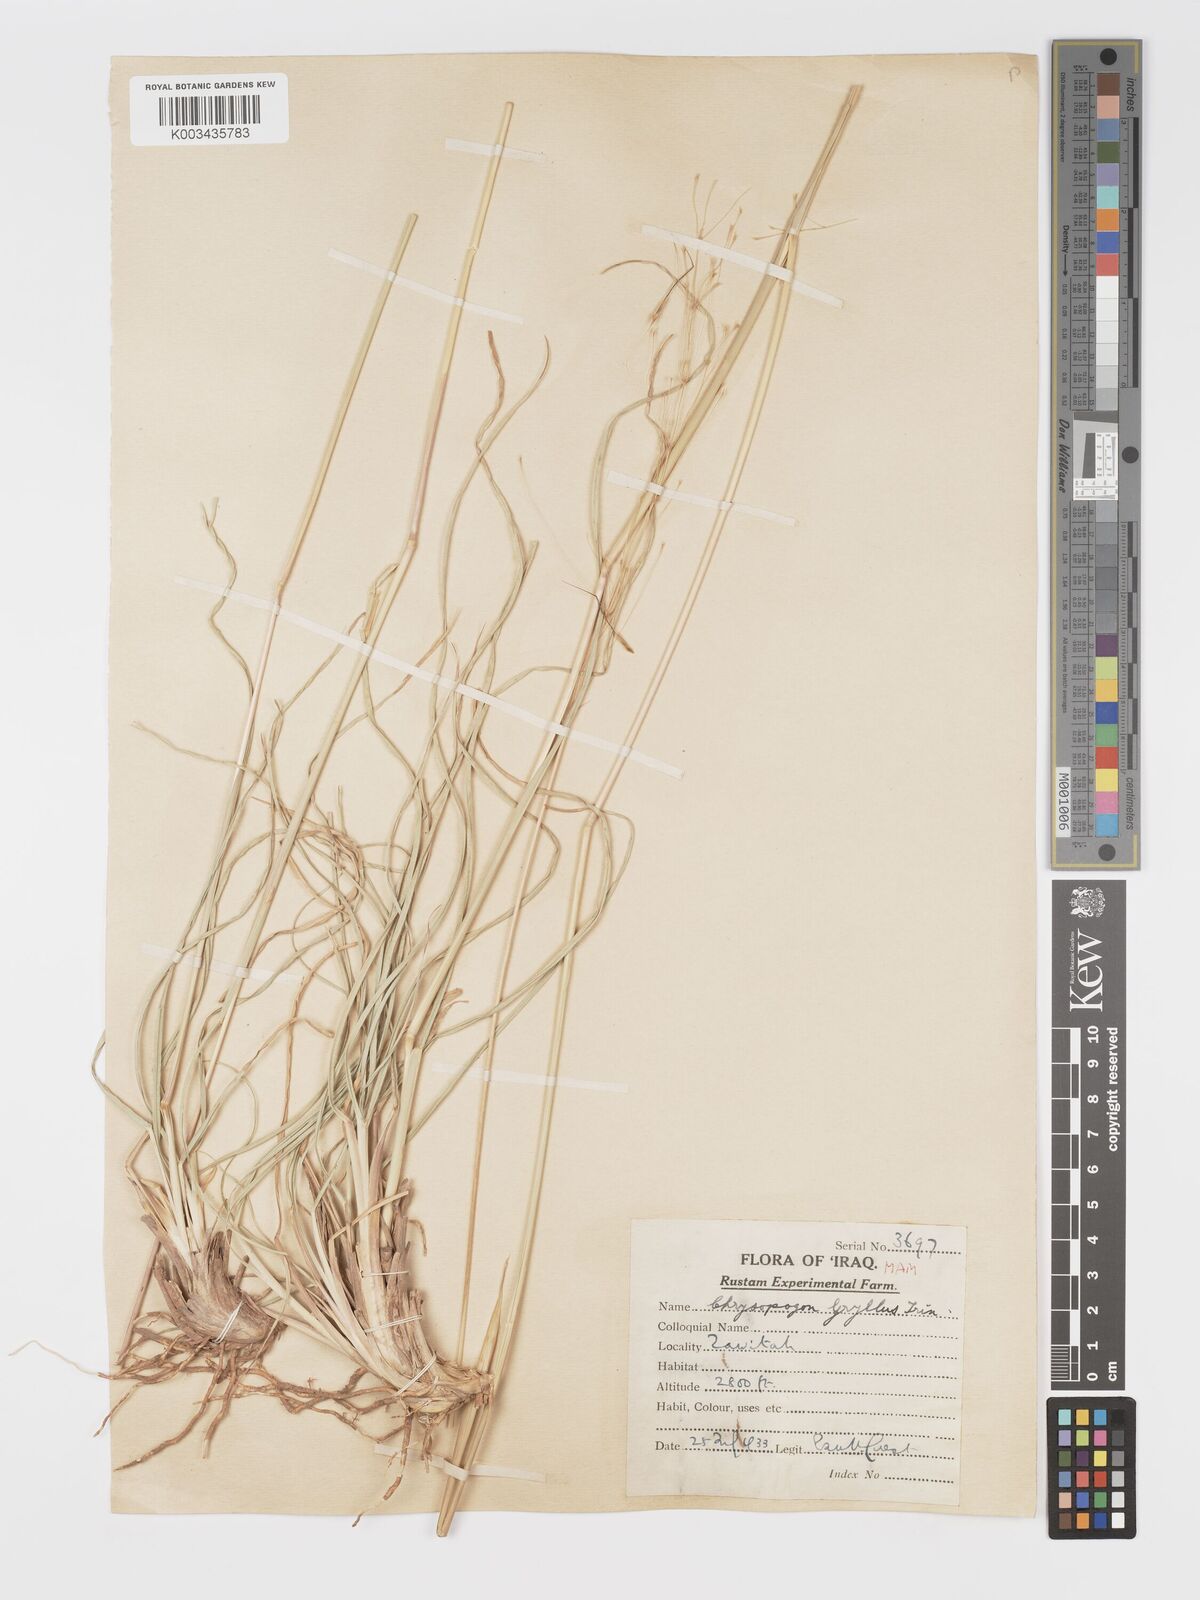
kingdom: Plantae
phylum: Tracheophyta
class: Liliopsida
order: Poales
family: Poaceae
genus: Chrysopogon
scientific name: Chrysopogon gryllus
